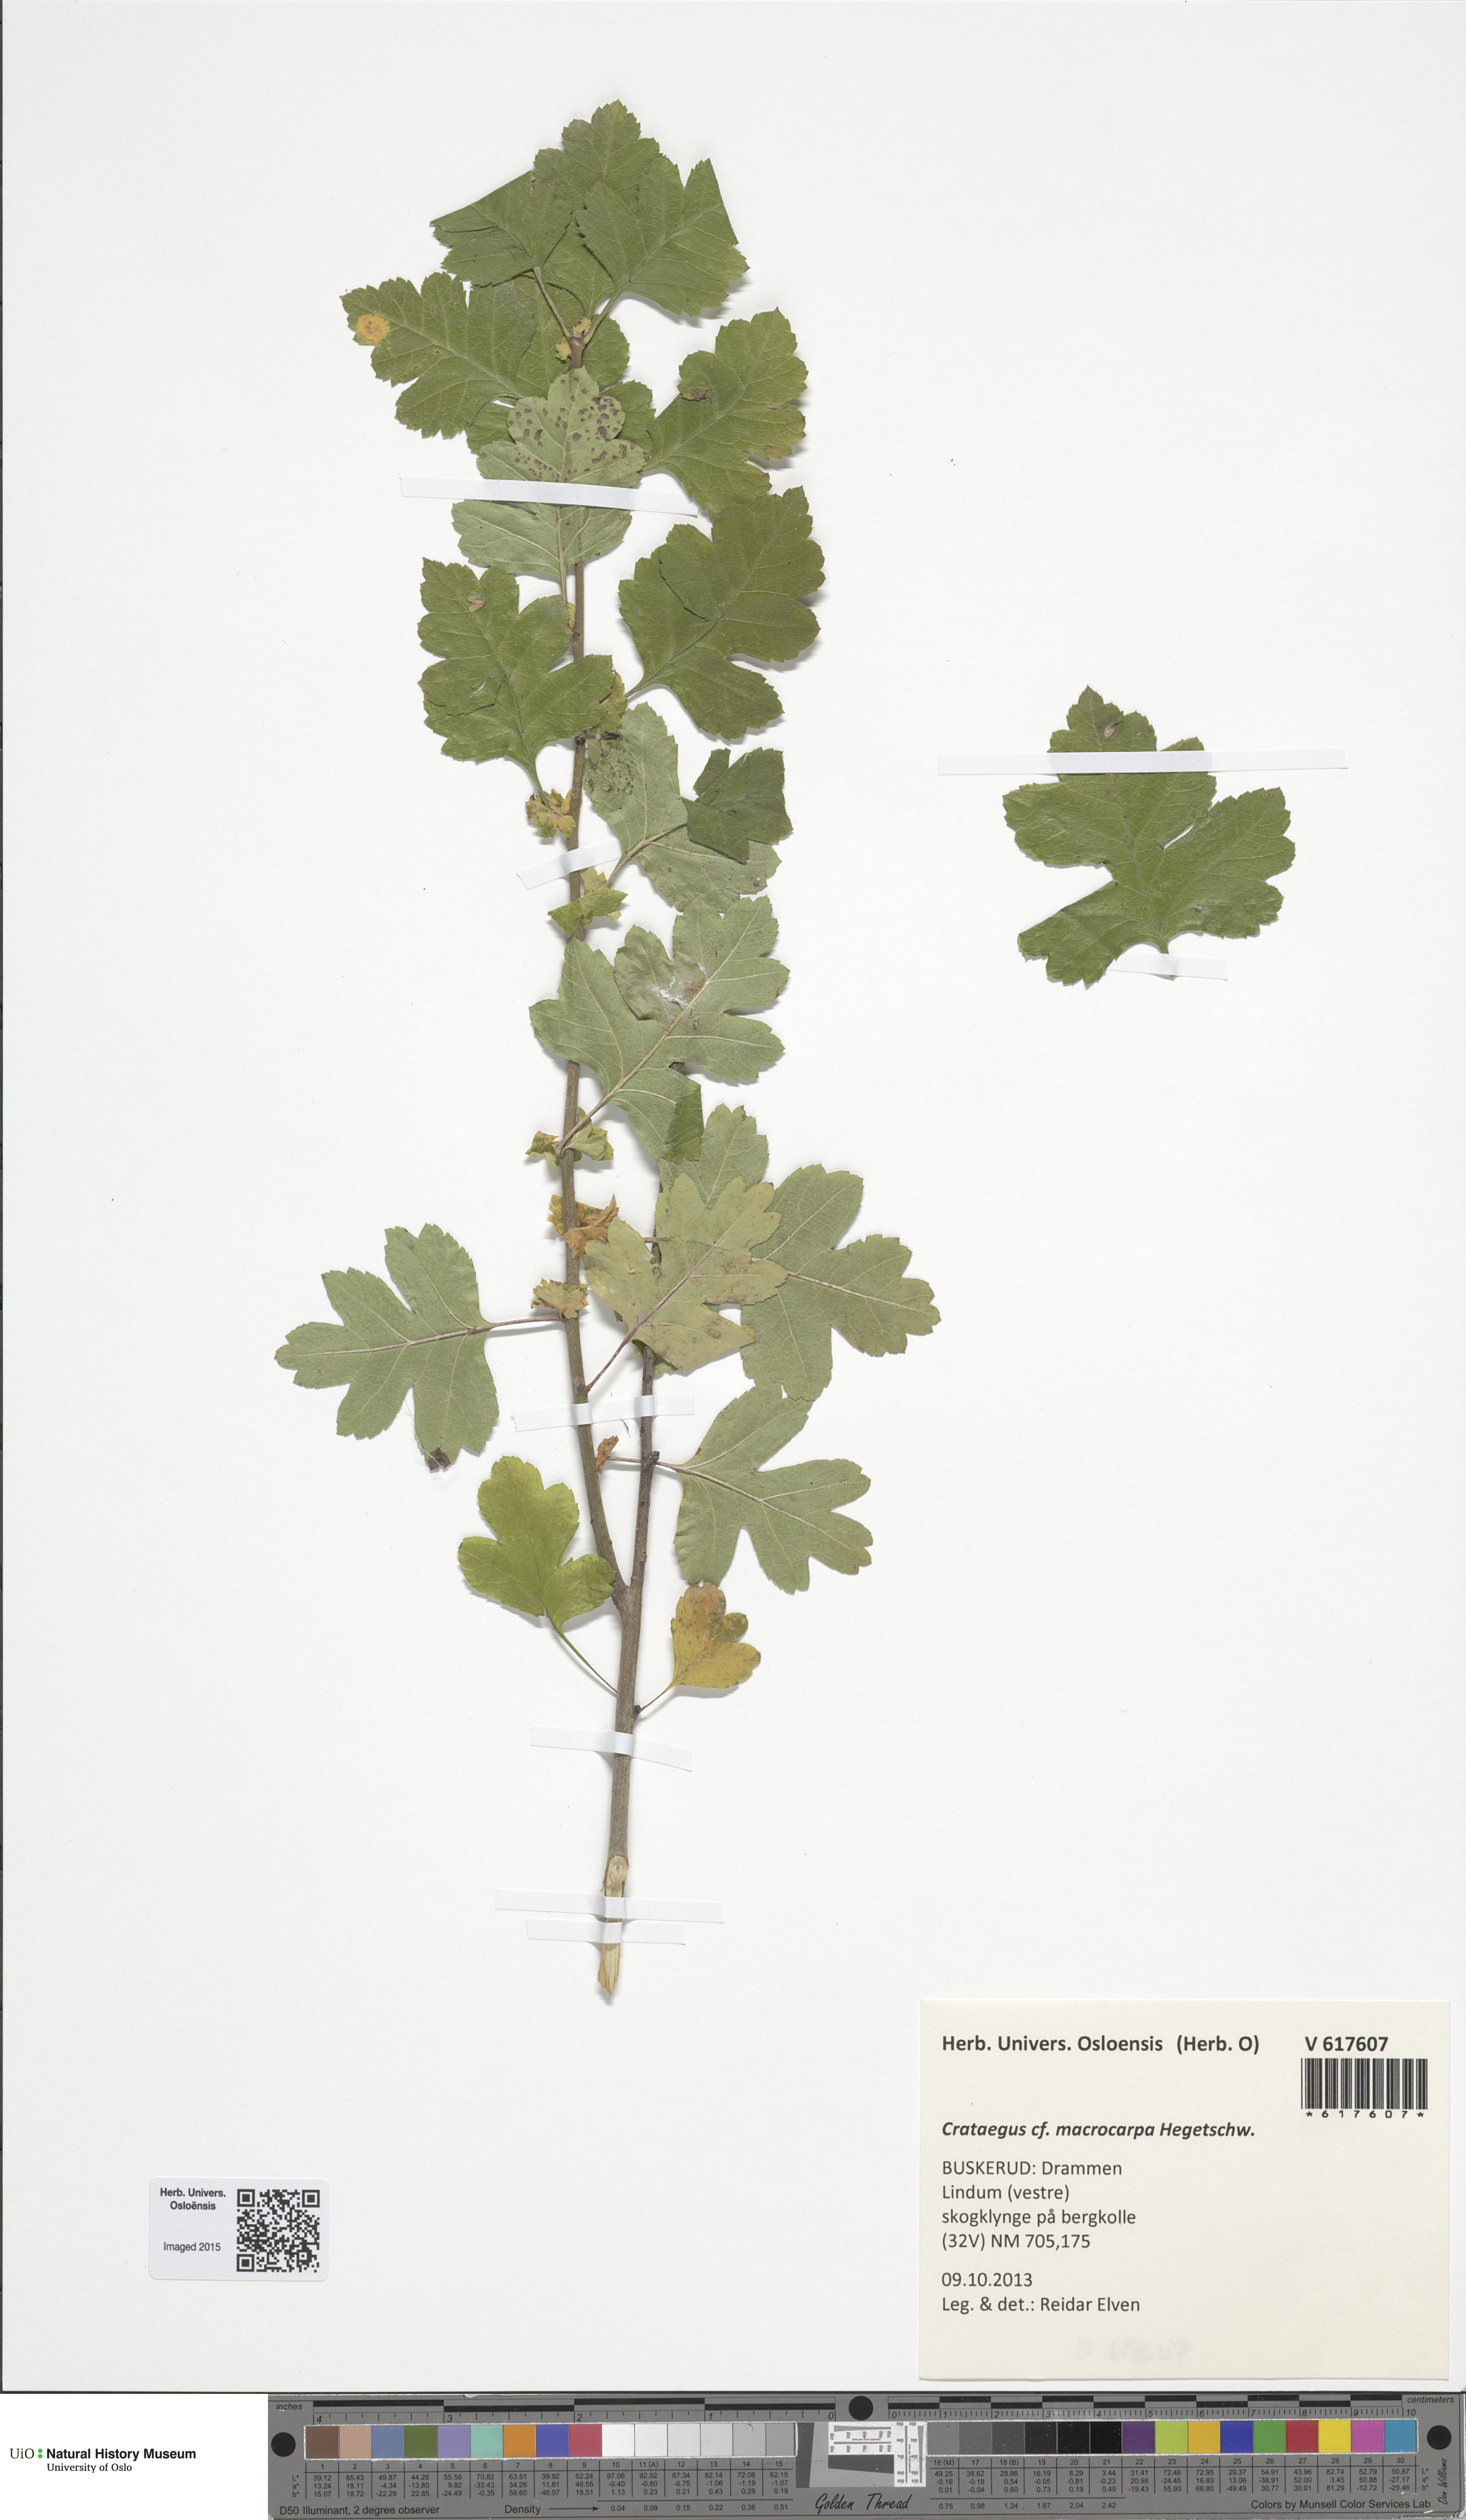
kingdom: Plantae
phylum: Tracheophyta
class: Magnoliopsida
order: Rosales
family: Rosaceae
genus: Crataegus
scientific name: Crataegus macrocarpa
